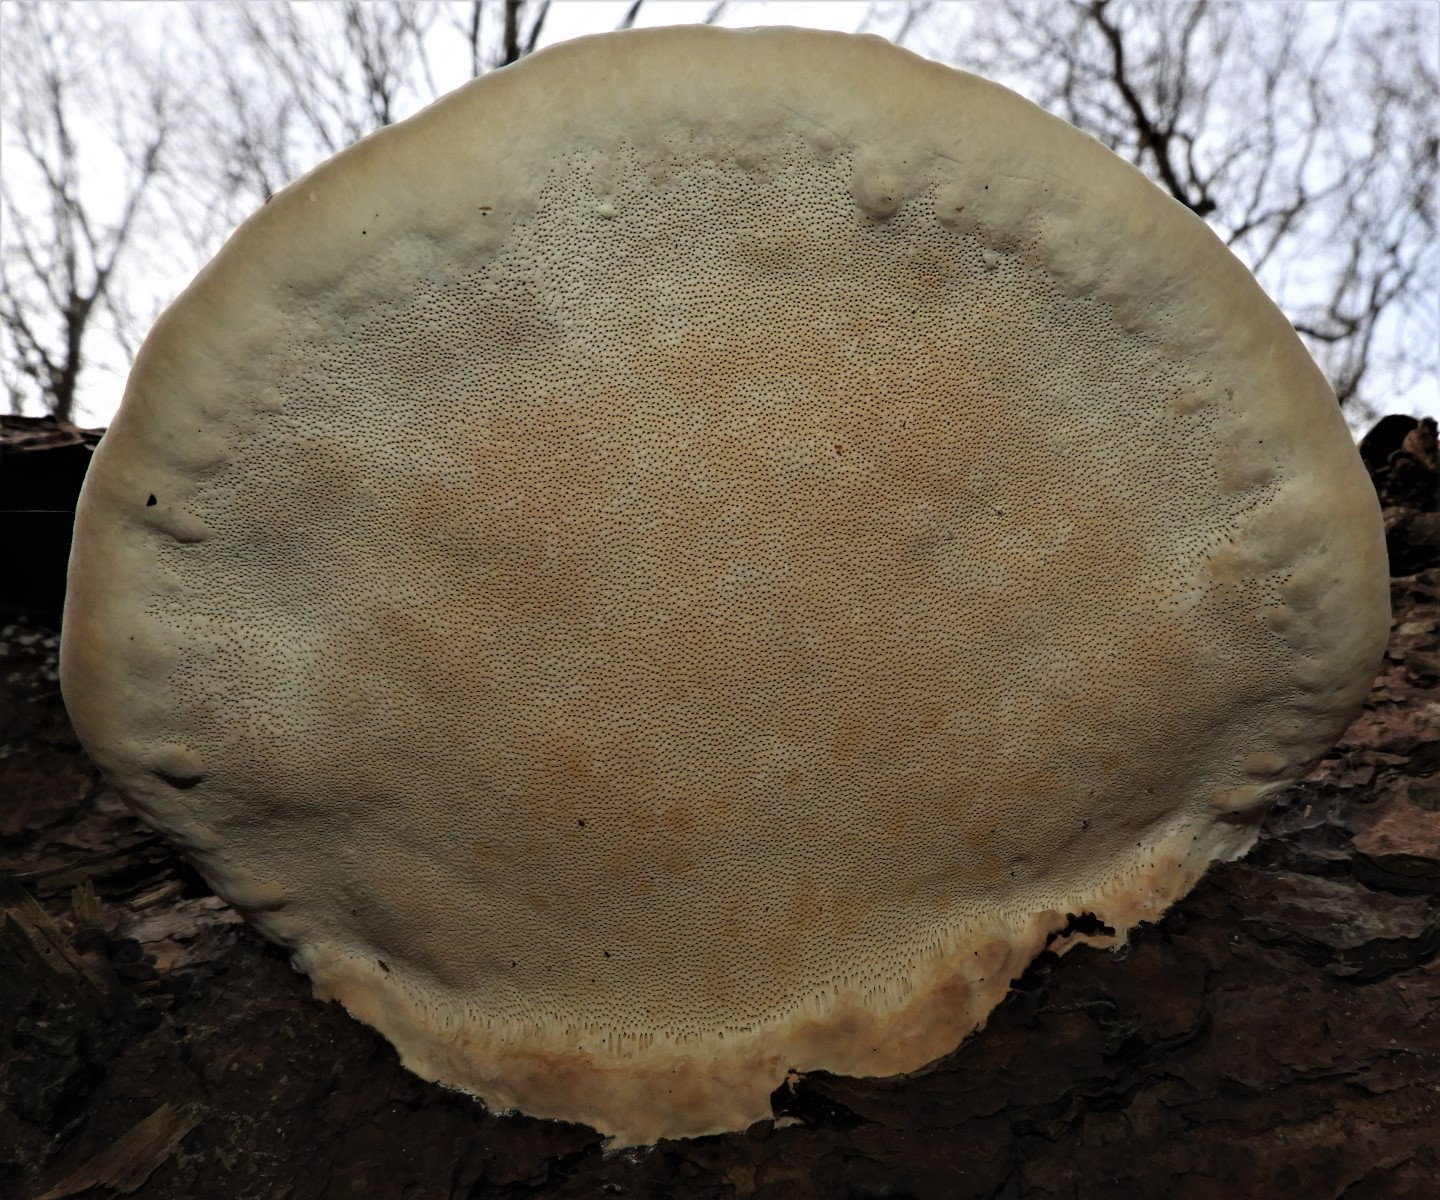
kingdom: Fungi
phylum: Basidiomycota
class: Agaricomycetes
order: Polyporales
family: Fomitopsidaceae
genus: Fomitopsis
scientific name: Fomitopsis pinicola
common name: randbæltet hovporesvamp
